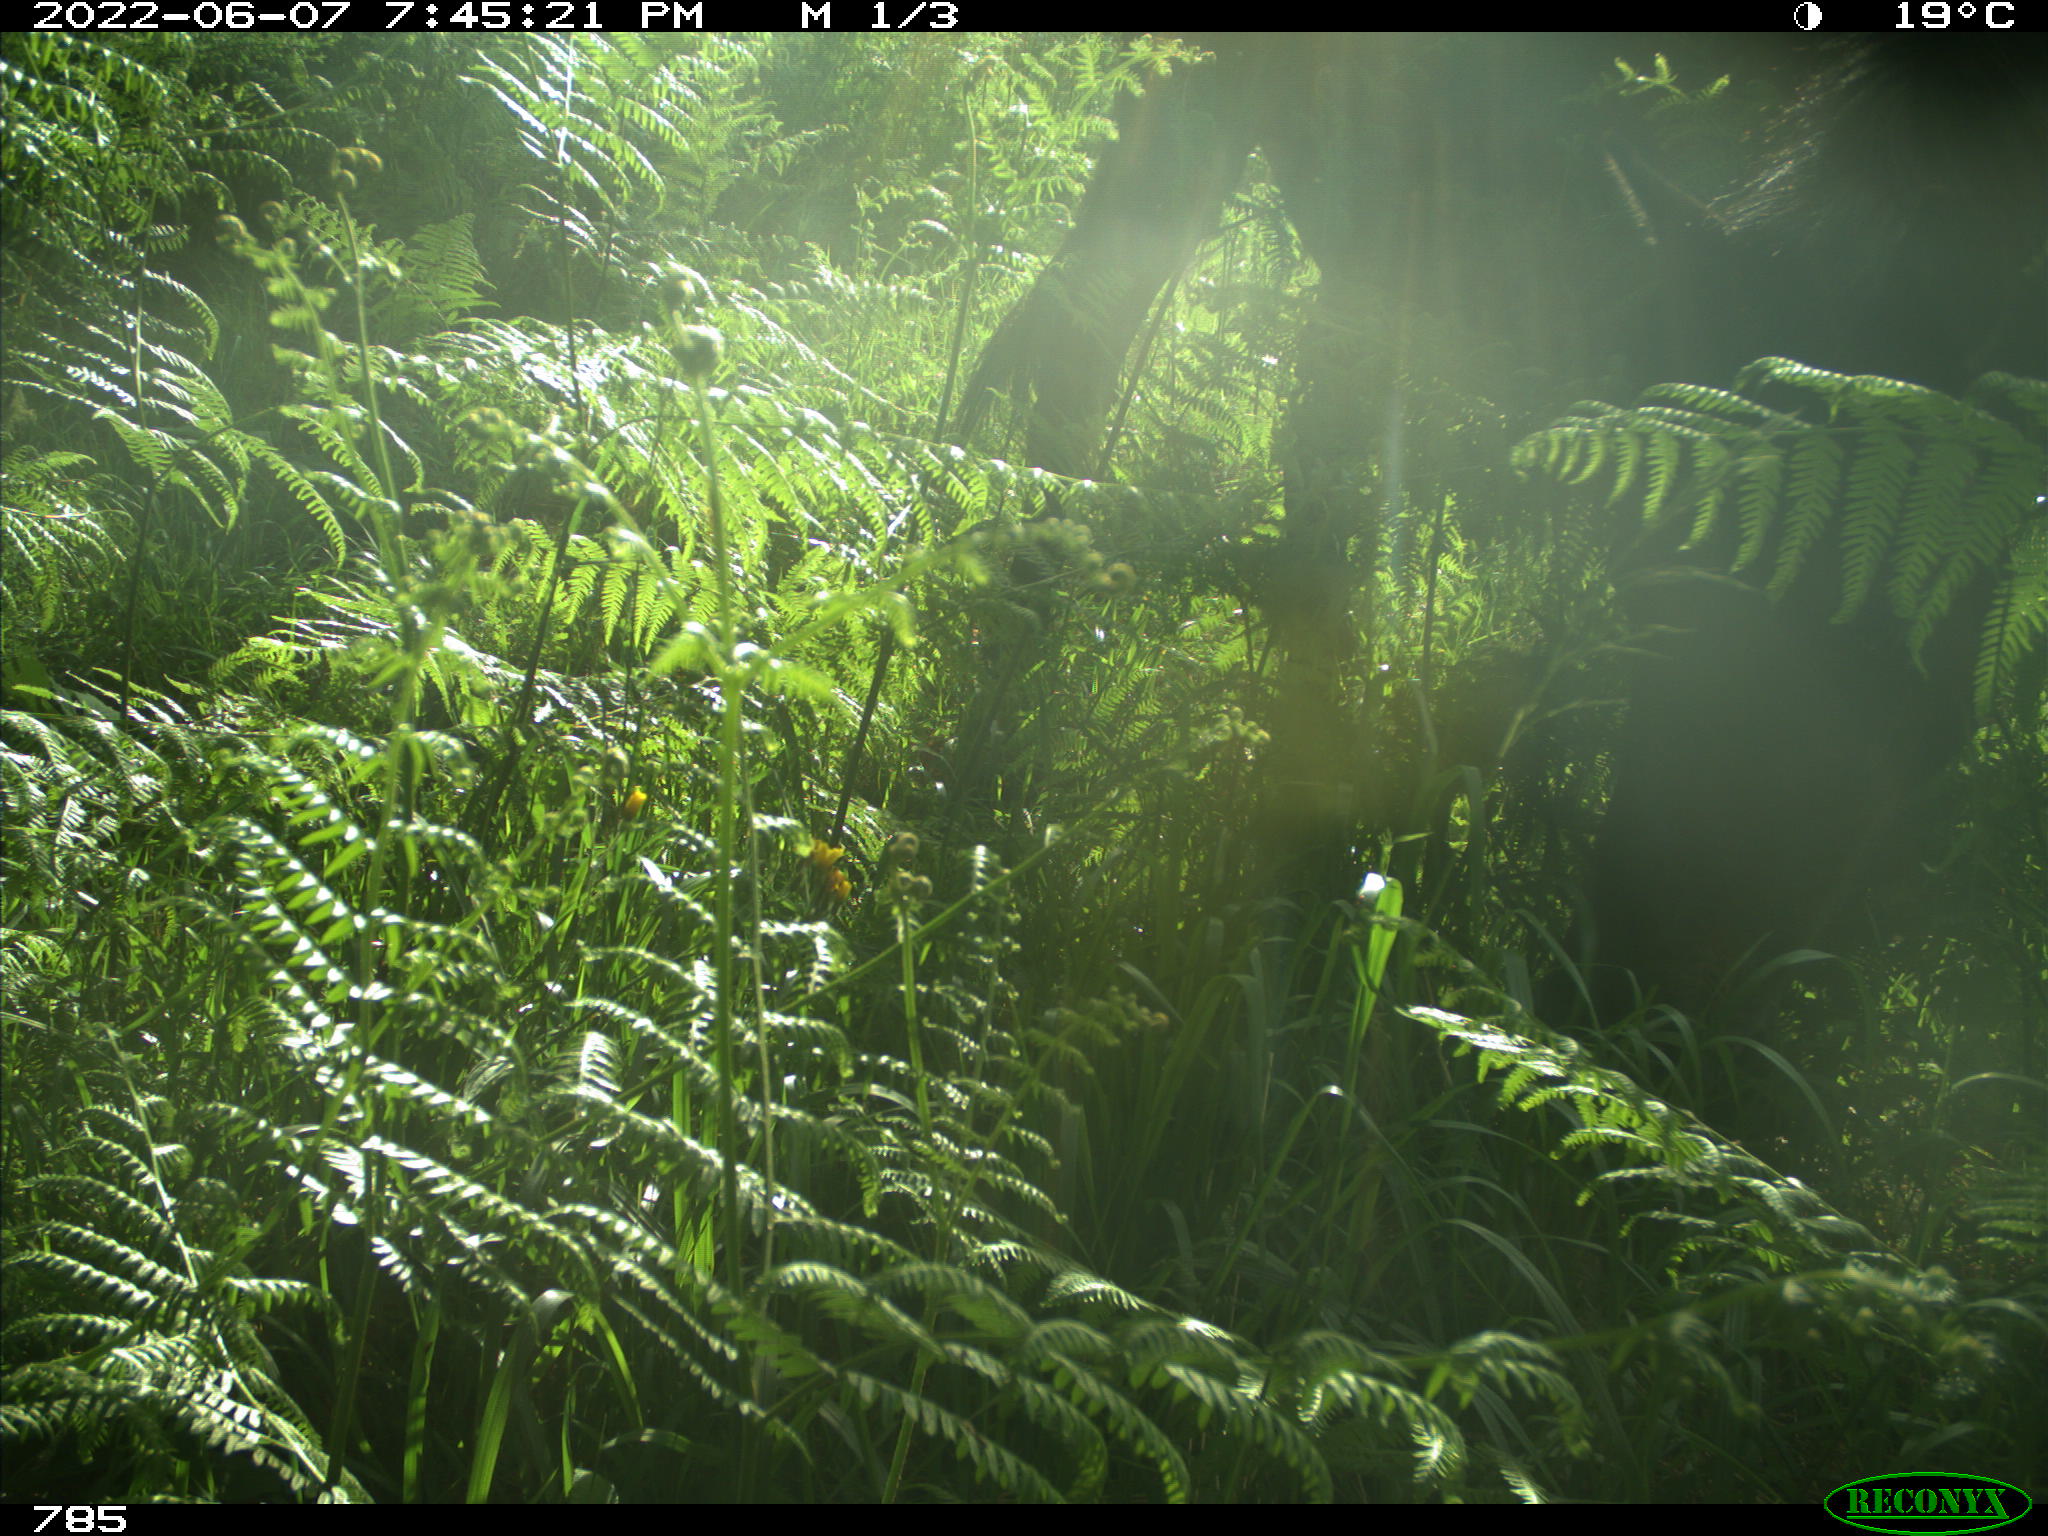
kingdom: Animalia
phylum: Chordata
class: Mammalia
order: Perissodactyla
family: Equidae
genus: Equus
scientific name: Equus caballus
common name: Horse
